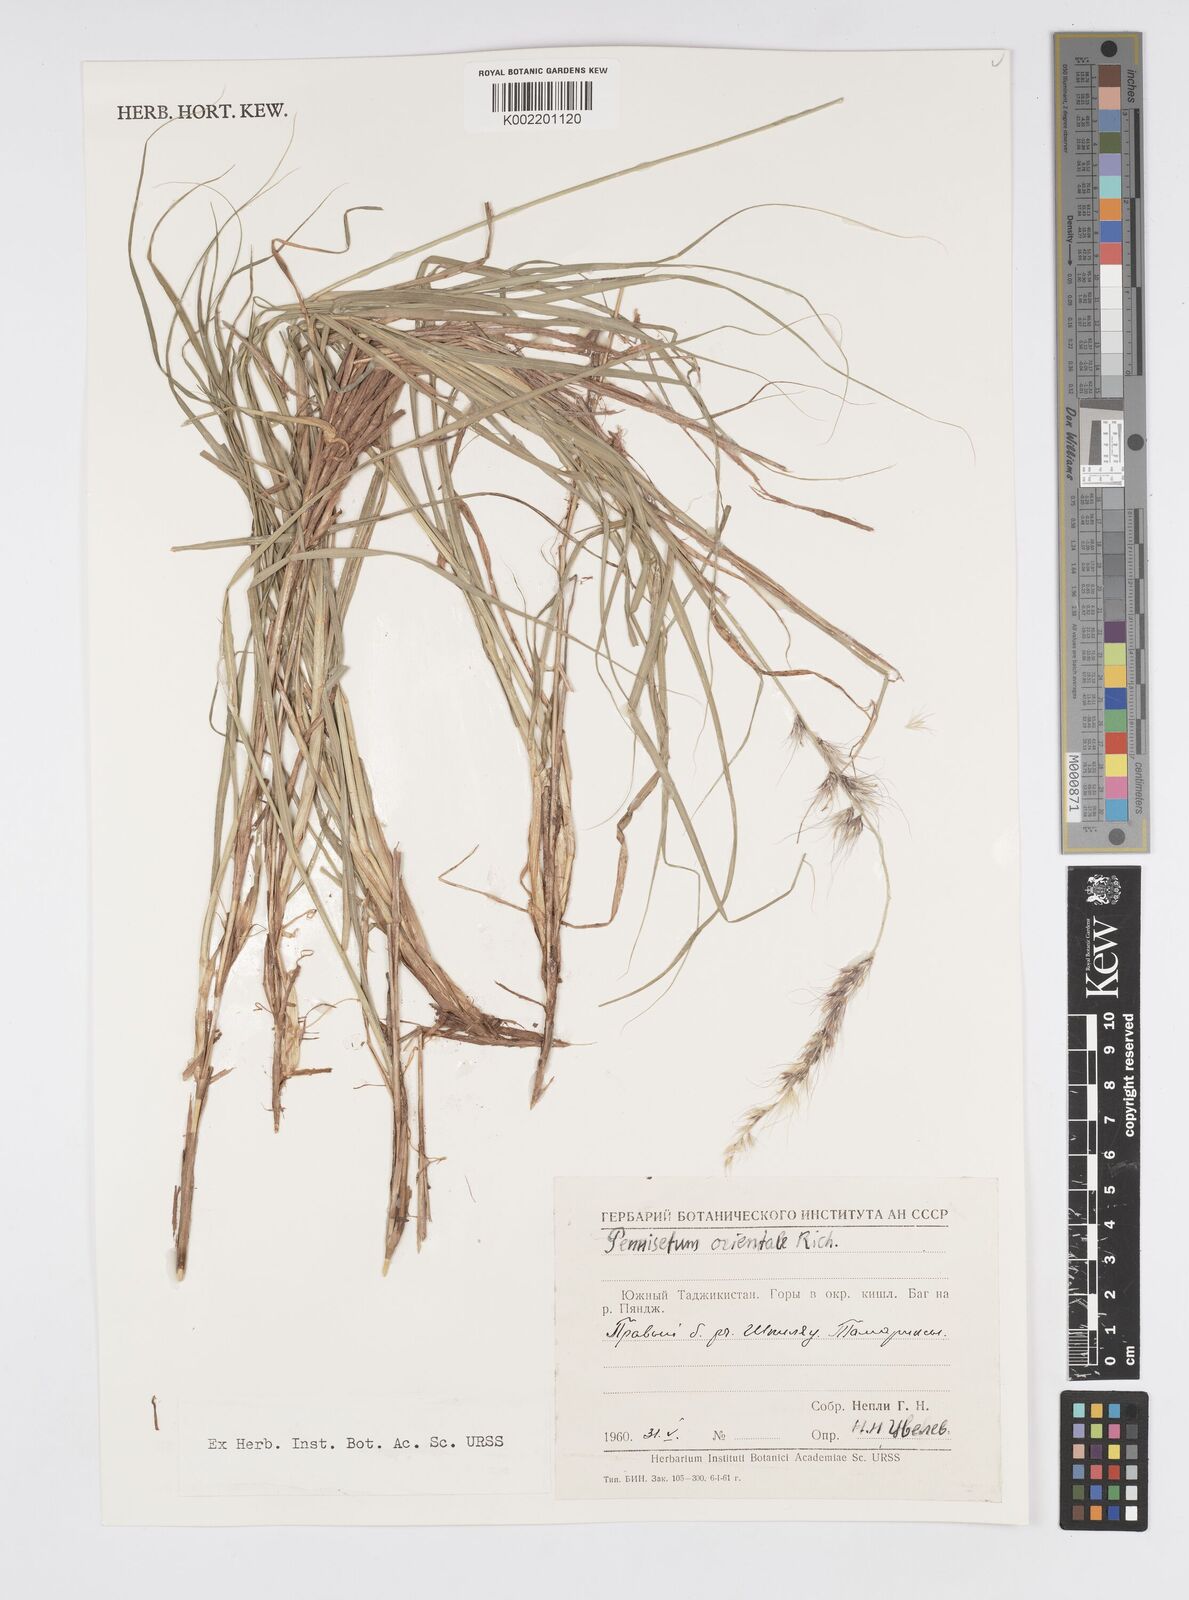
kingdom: Plantae
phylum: Tracheophyta
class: Liliopsida
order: Poales
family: Poaceae
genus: Cenchrus
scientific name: Cenchrus orientalis
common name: Oriental fountain grass
